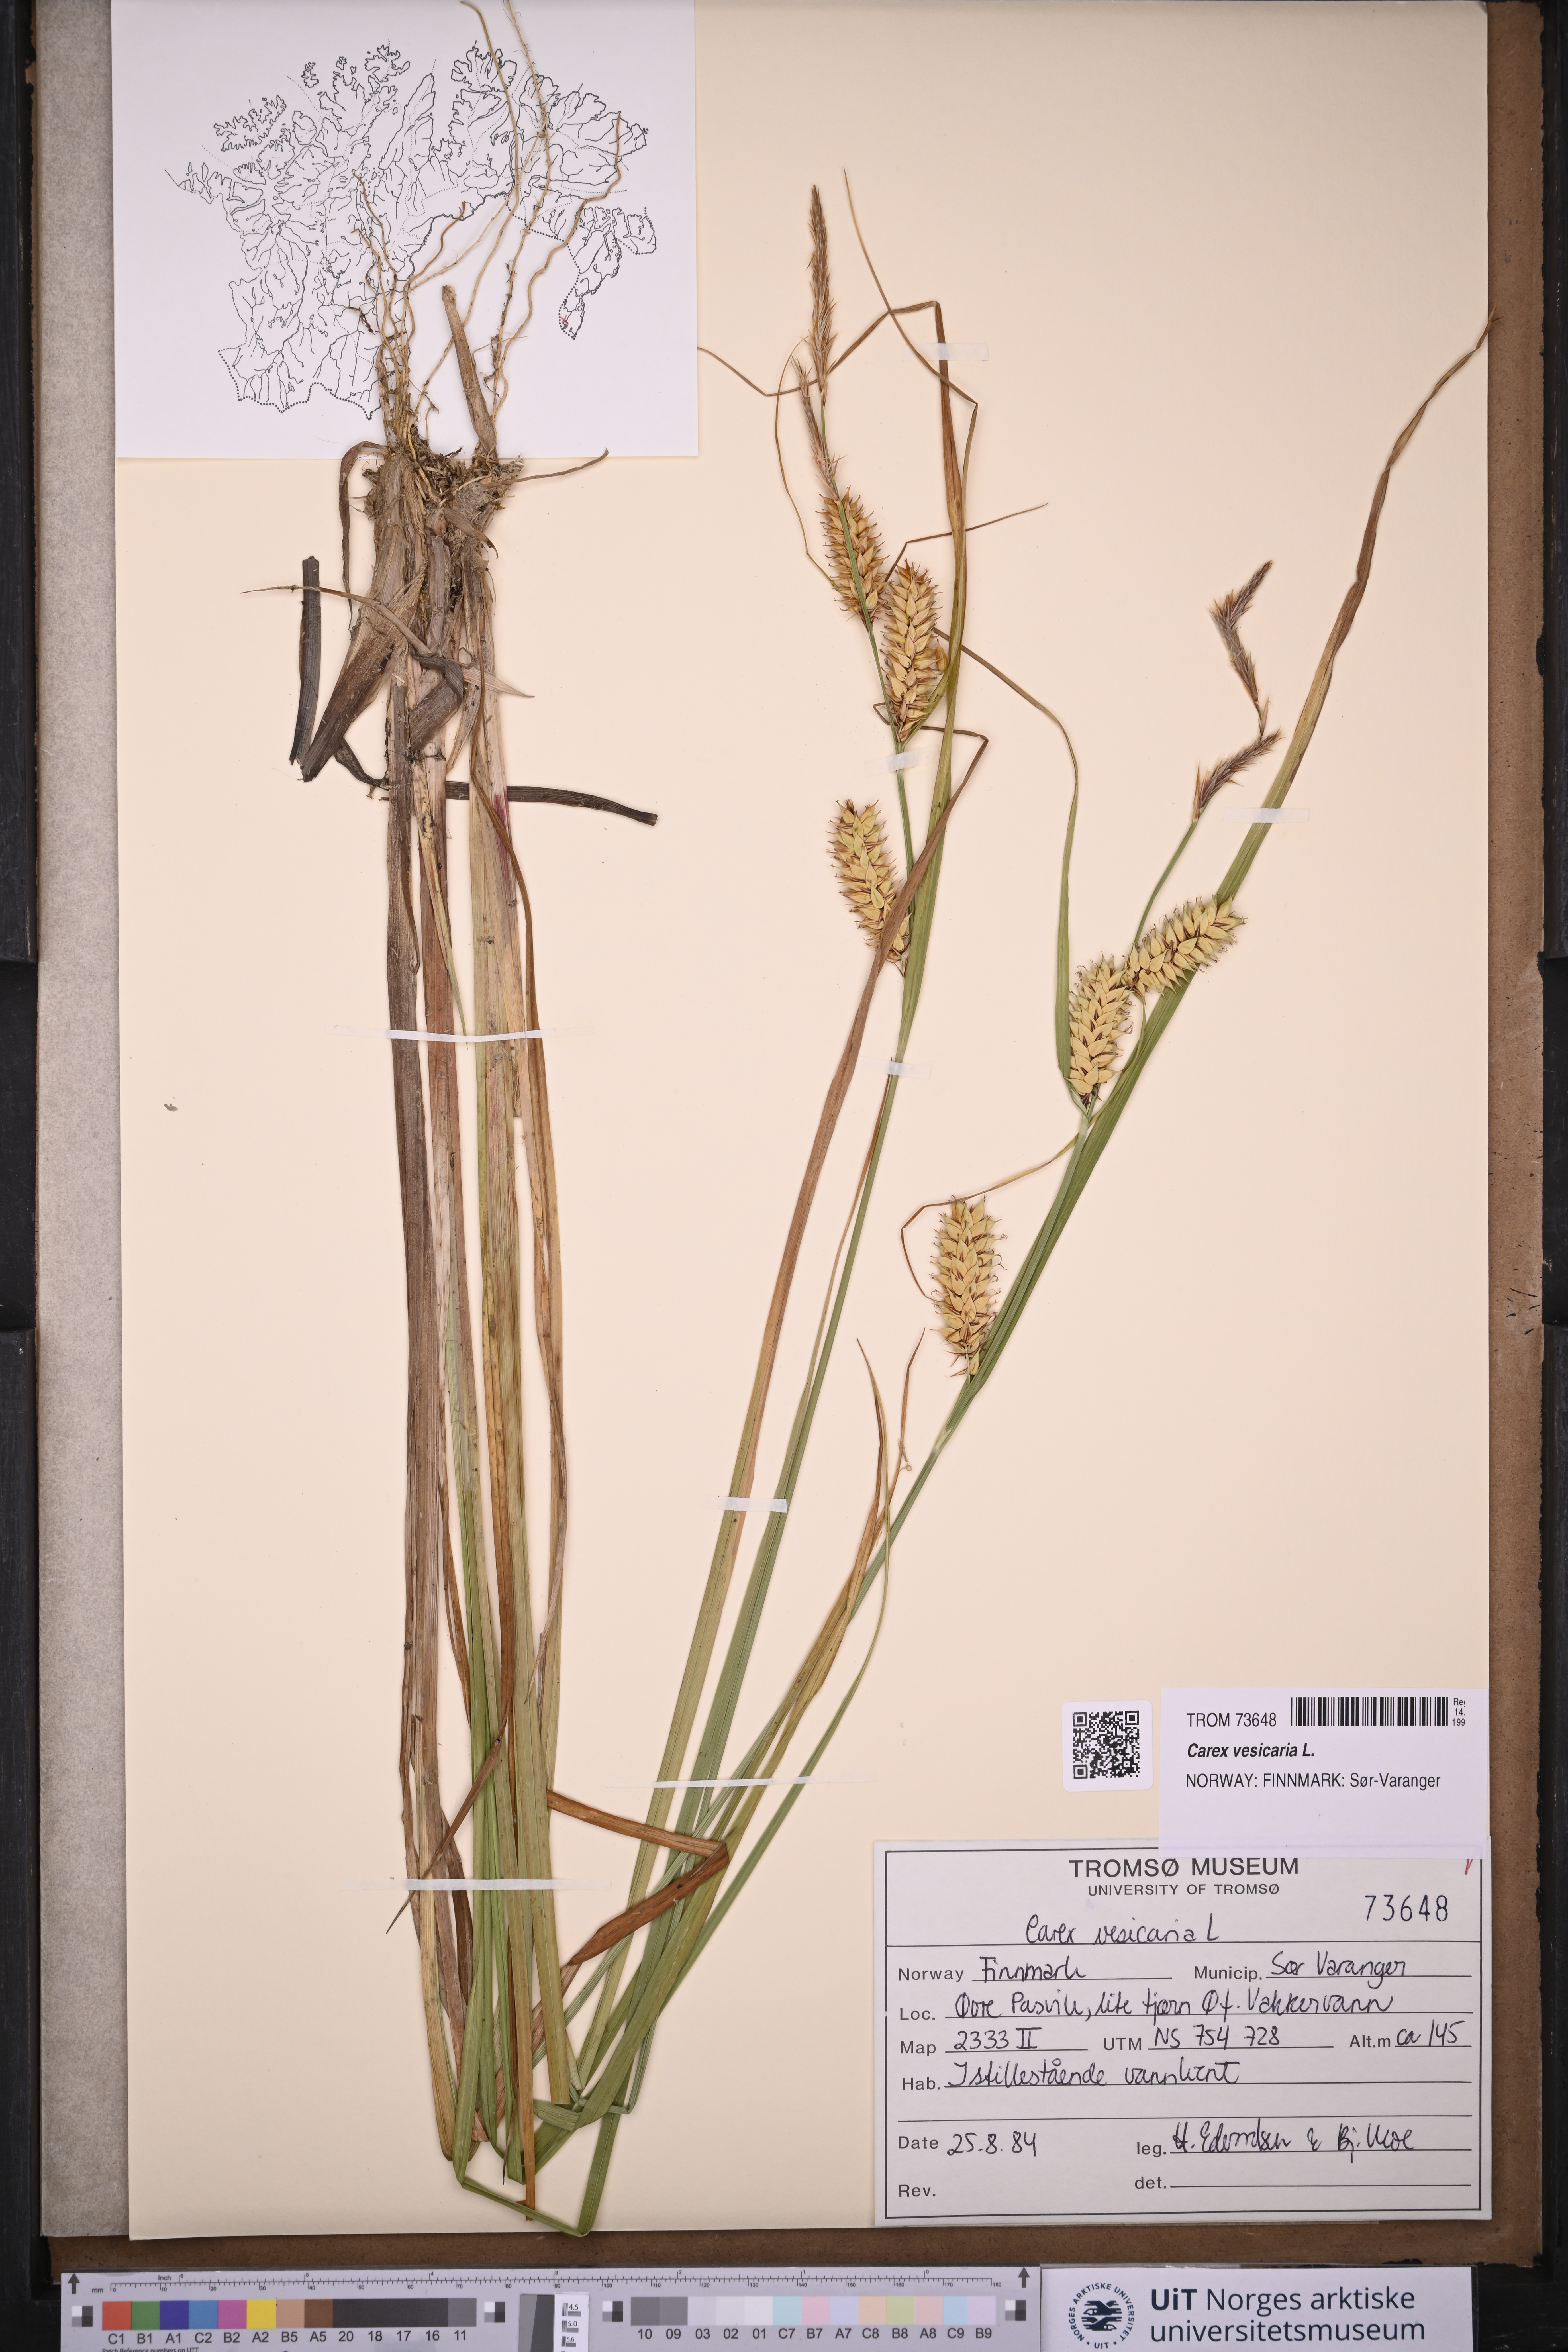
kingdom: Plantae
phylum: Tracheophyta
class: Liliopsida
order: Poales
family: Cyperaceae
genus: Carex
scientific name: Carex vesicaria
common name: Bladder-sedge
